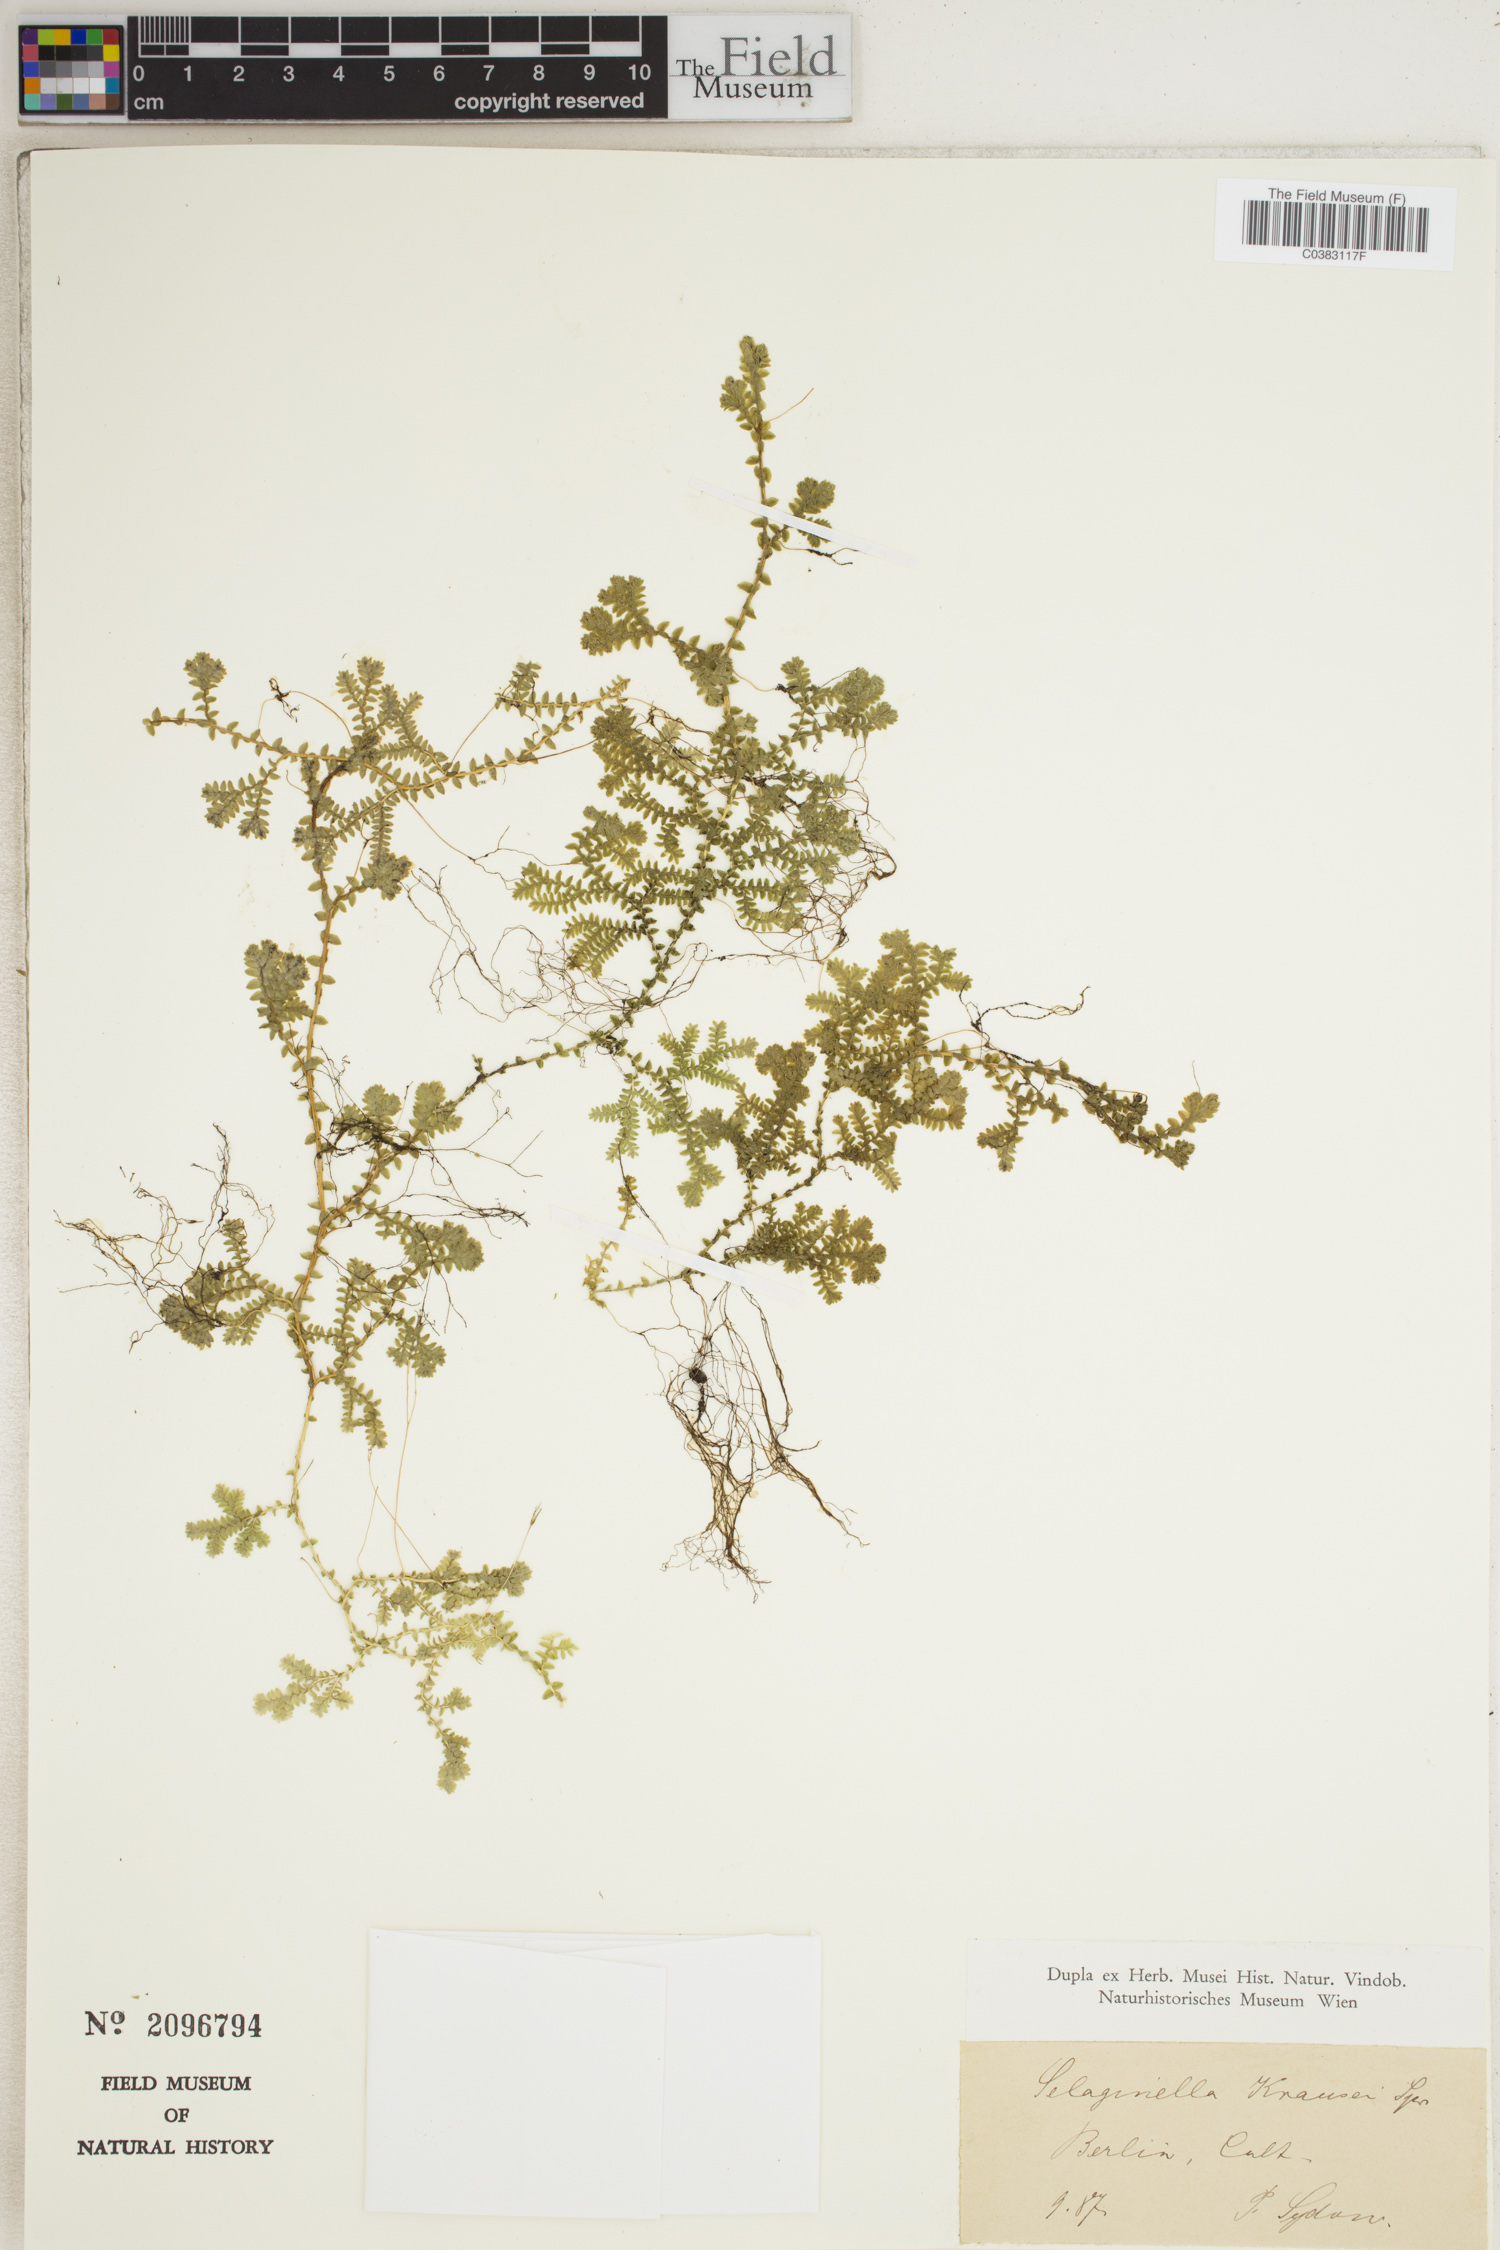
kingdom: Plantae
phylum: Tracheophyta
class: Lycopodiopsida
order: Selaginellales
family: Selaginellaceae
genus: Selaginella
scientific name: Selaginella kraussiana
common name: Krauss' spikemoss
